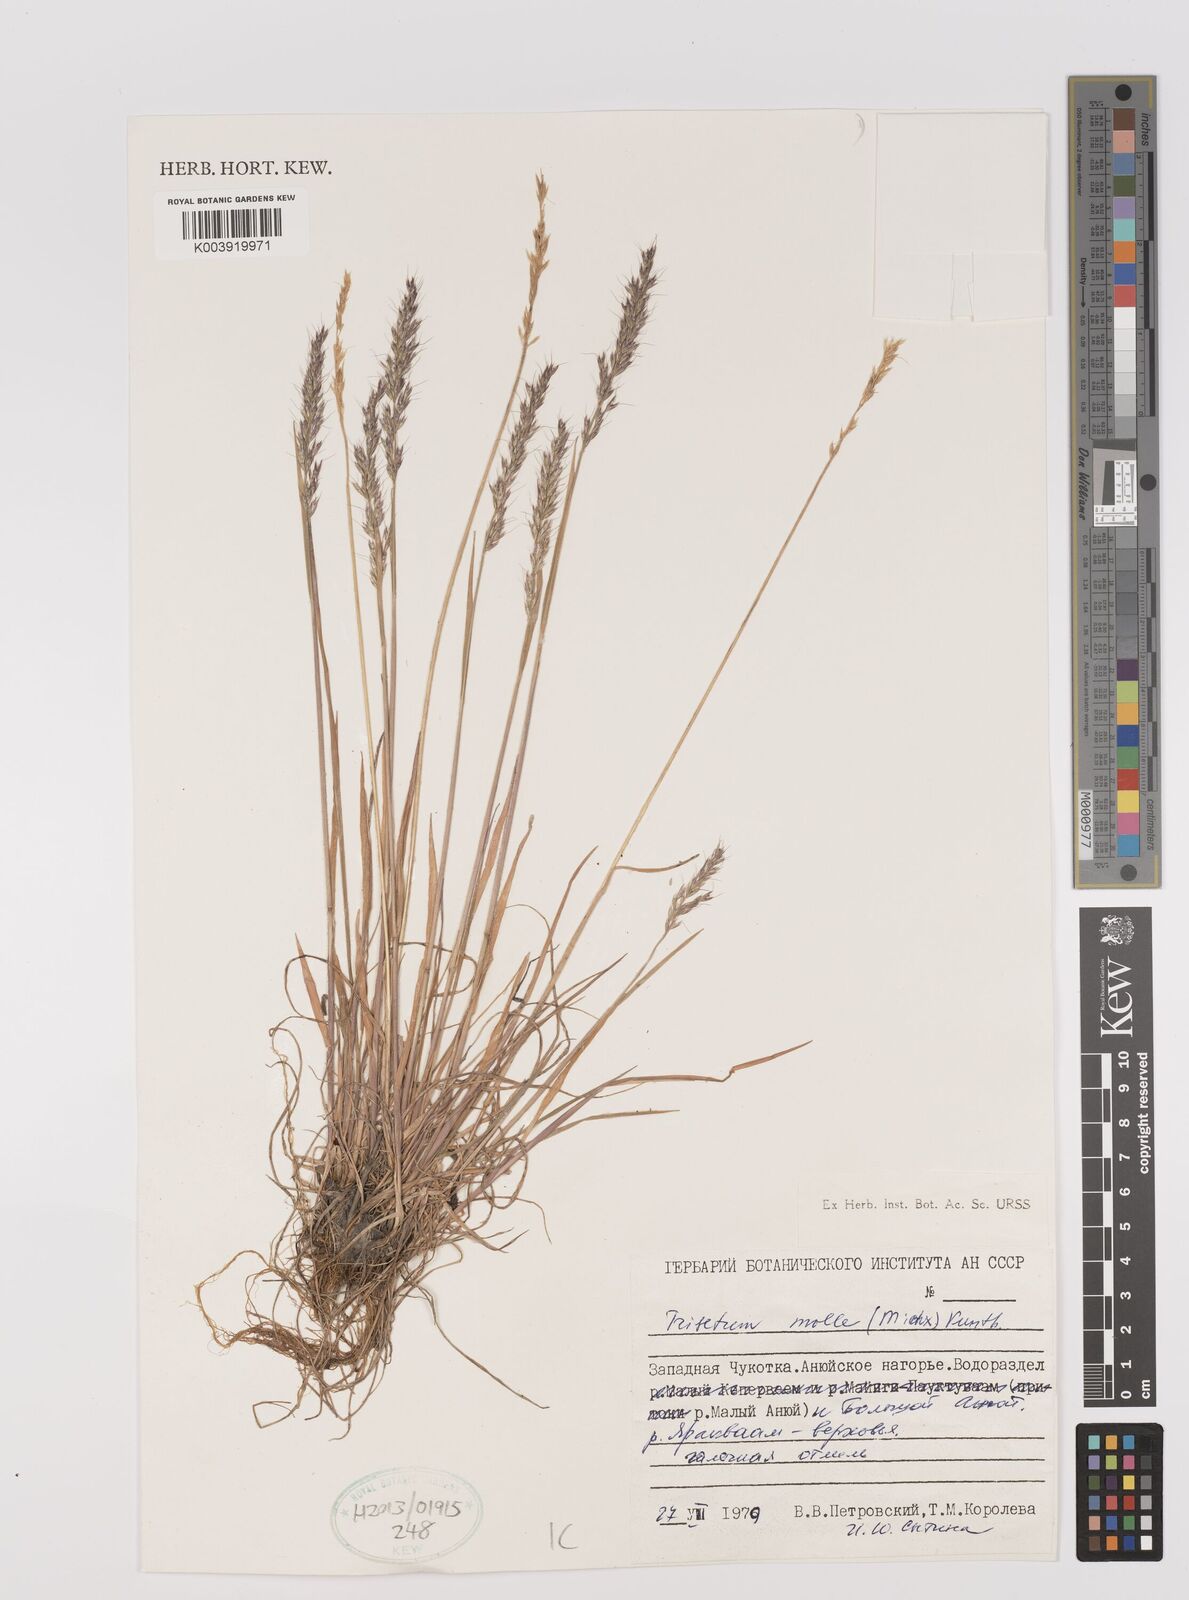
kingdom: Plantae
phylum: Tracheophyta
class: Liliopsida
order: Poales
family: Poaceae
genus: Koeleria
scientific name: Koeleria spicata
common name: Mountain trisetum
